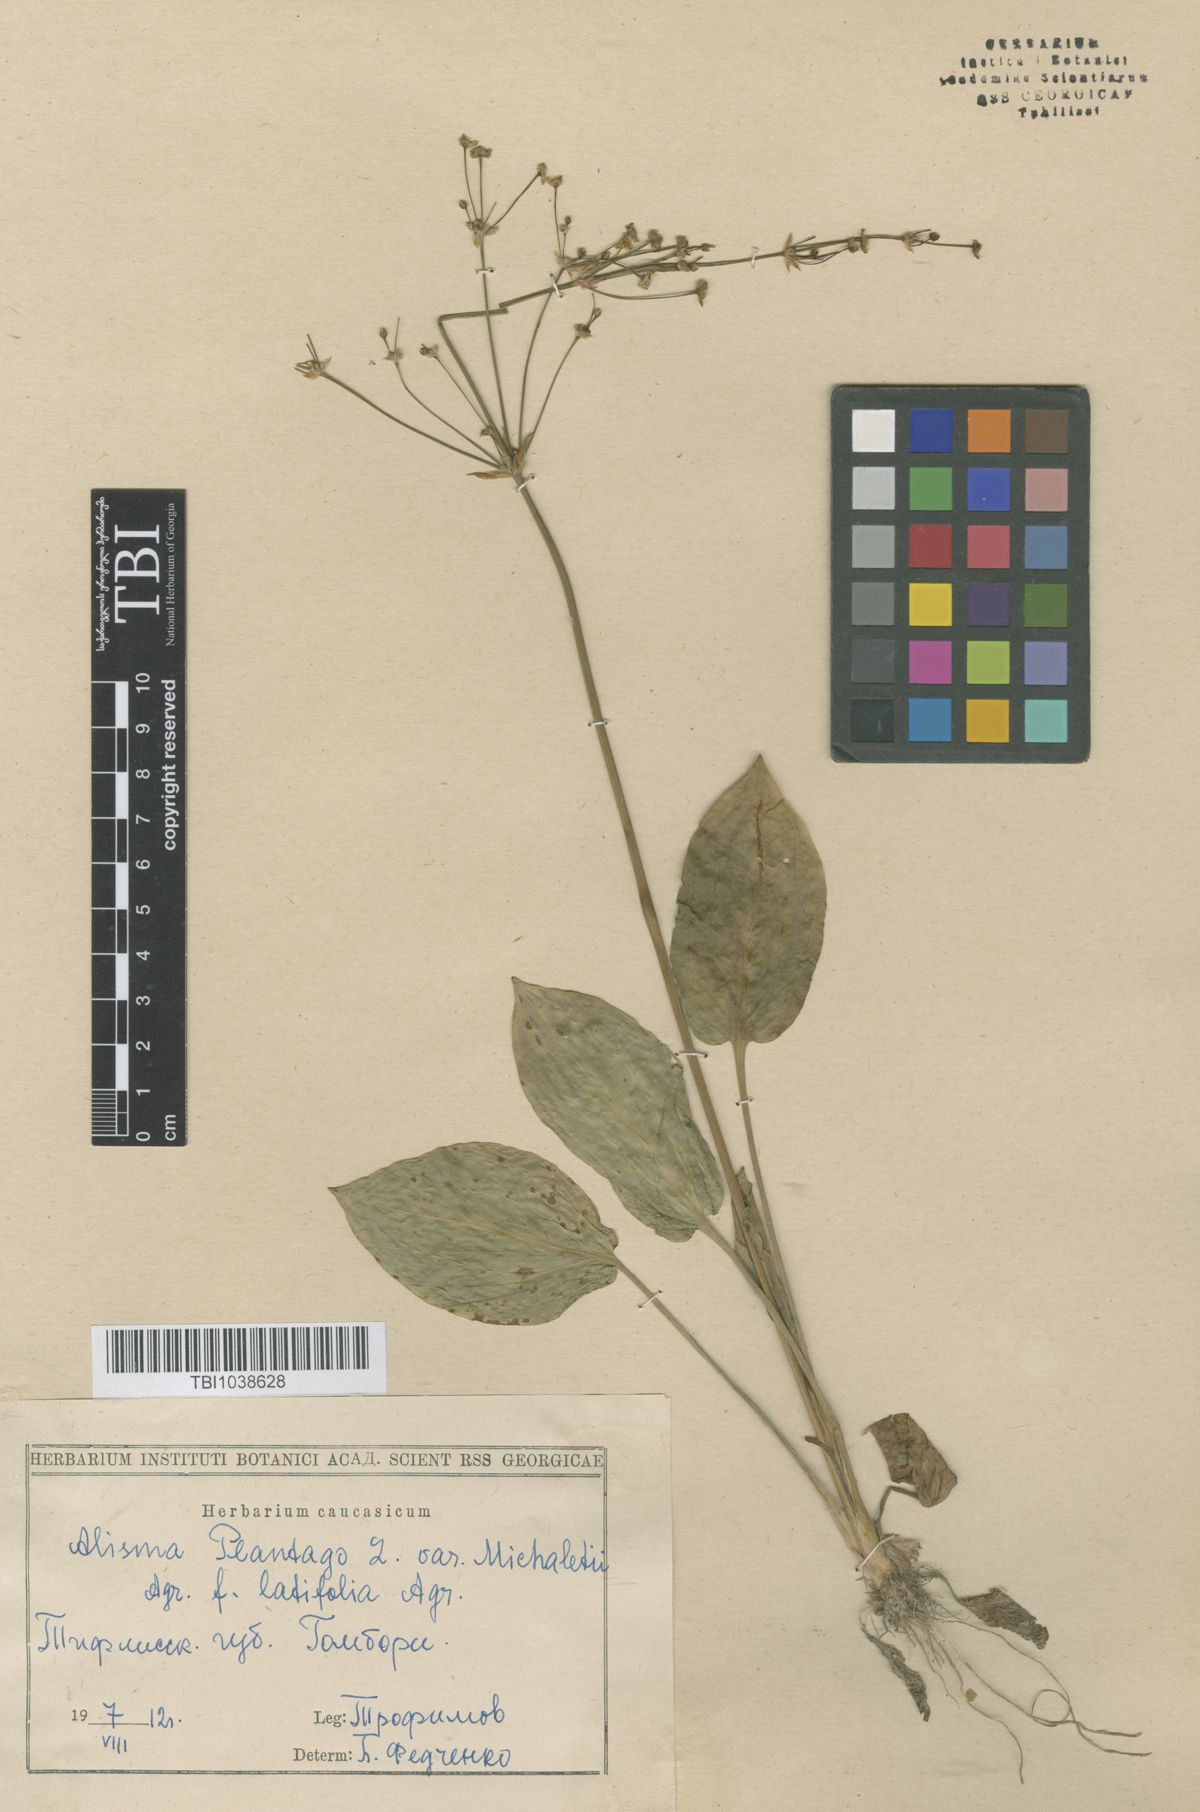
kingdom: Plantae
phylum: Tracheophyta
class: Liliopsida
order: Alismatales
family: Alismataceae
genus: Alisma
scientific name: Alisma plantago-aquatica
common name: Water-plantain
